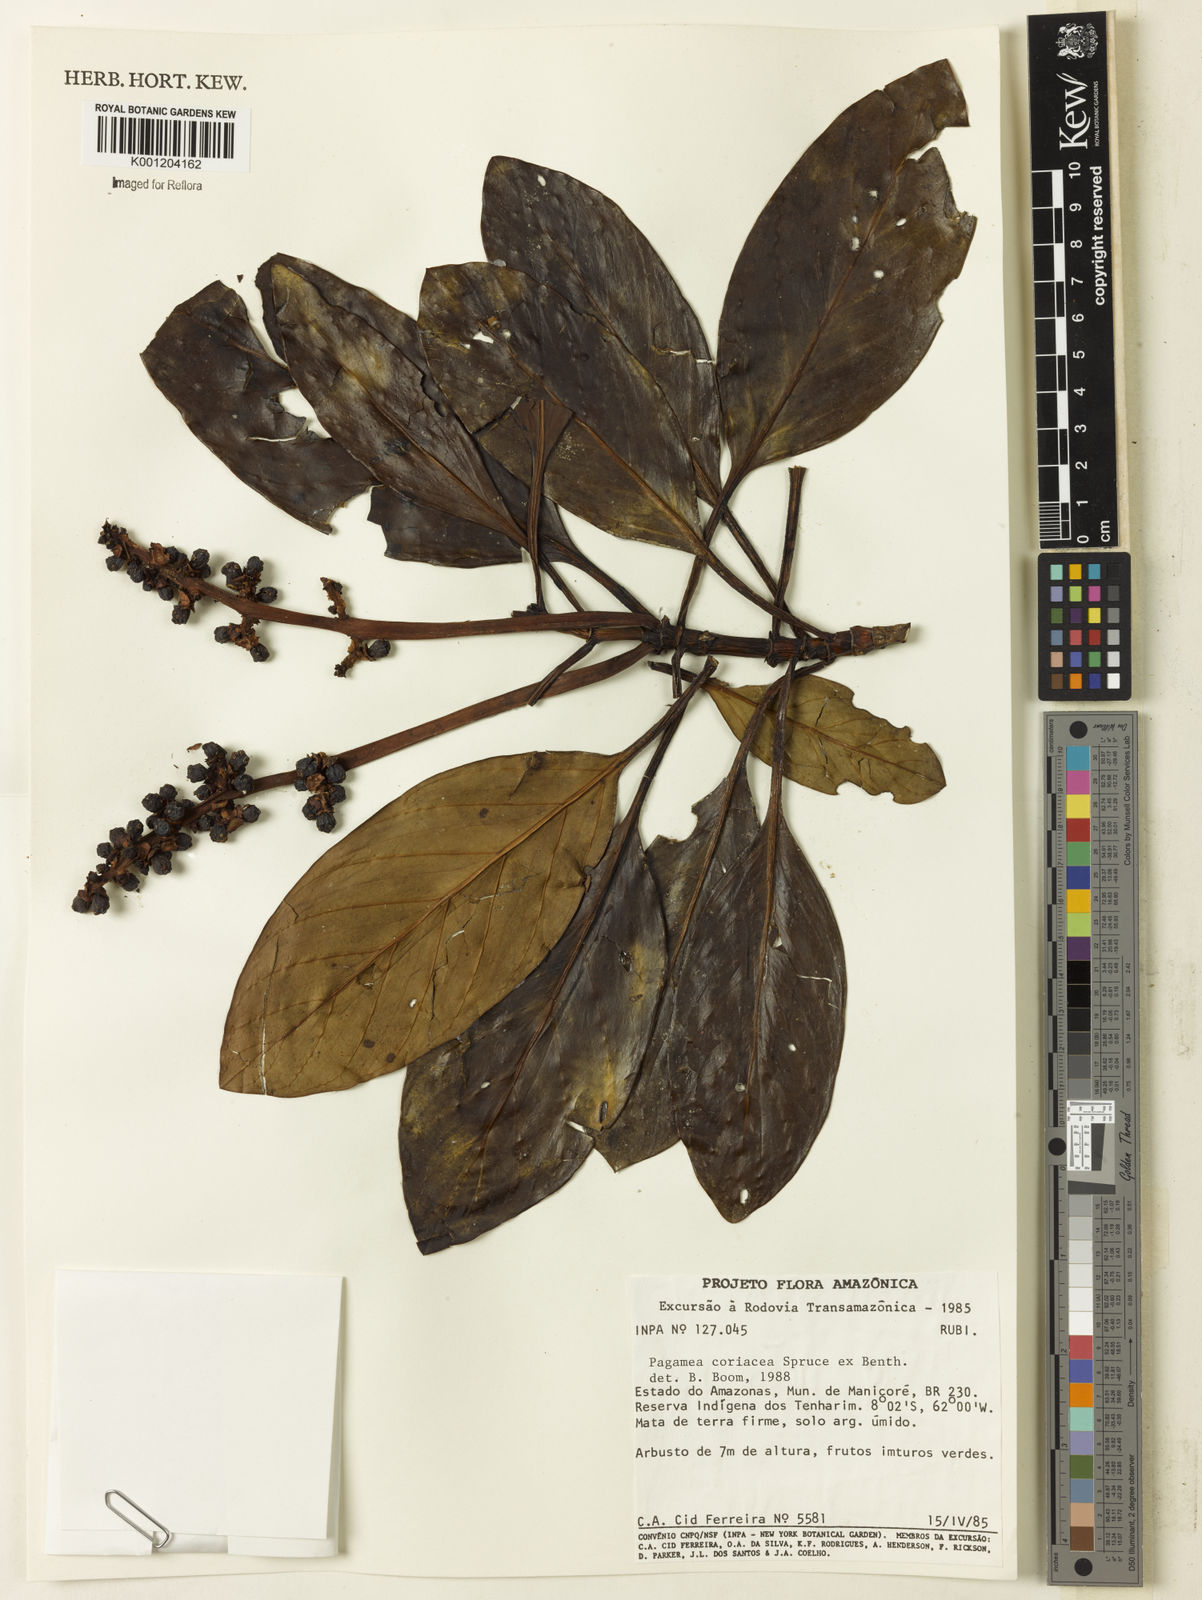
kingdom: Plantae
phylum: Tracheophyta
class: Magnoliopsida
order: Gentianales
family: Rubiaceae
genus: Pagamea
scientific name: Pagamea coriacea
